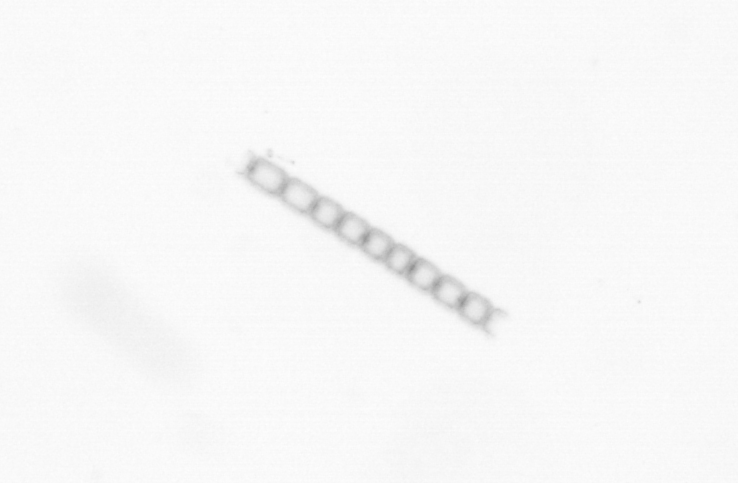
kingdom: Chromista
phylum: Ochrophyta
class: Bacillariophyceae
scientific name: Bacillariophyceae
